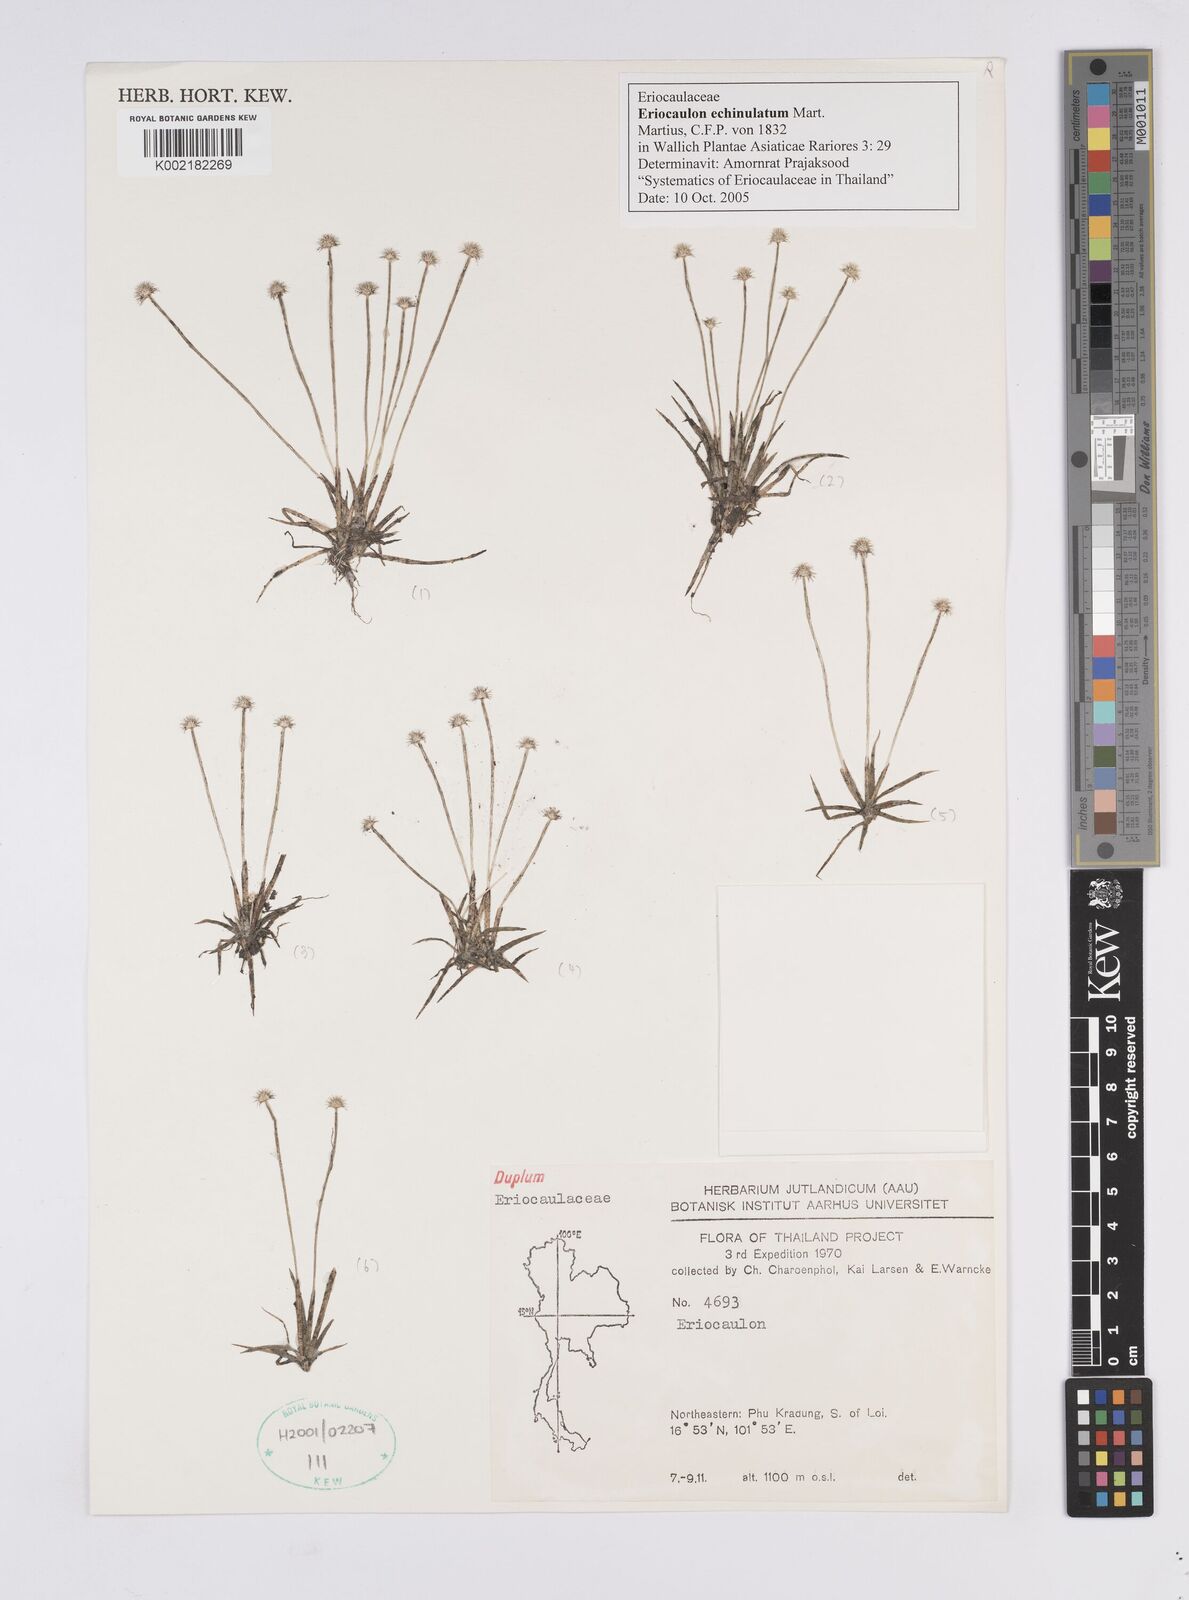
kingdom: Plantae
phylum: Tracheophyta
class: Liliopsida
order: Poales
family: Eriocaulaceae
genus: Eriocaulon
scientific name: Eriocaulon echinulatum
